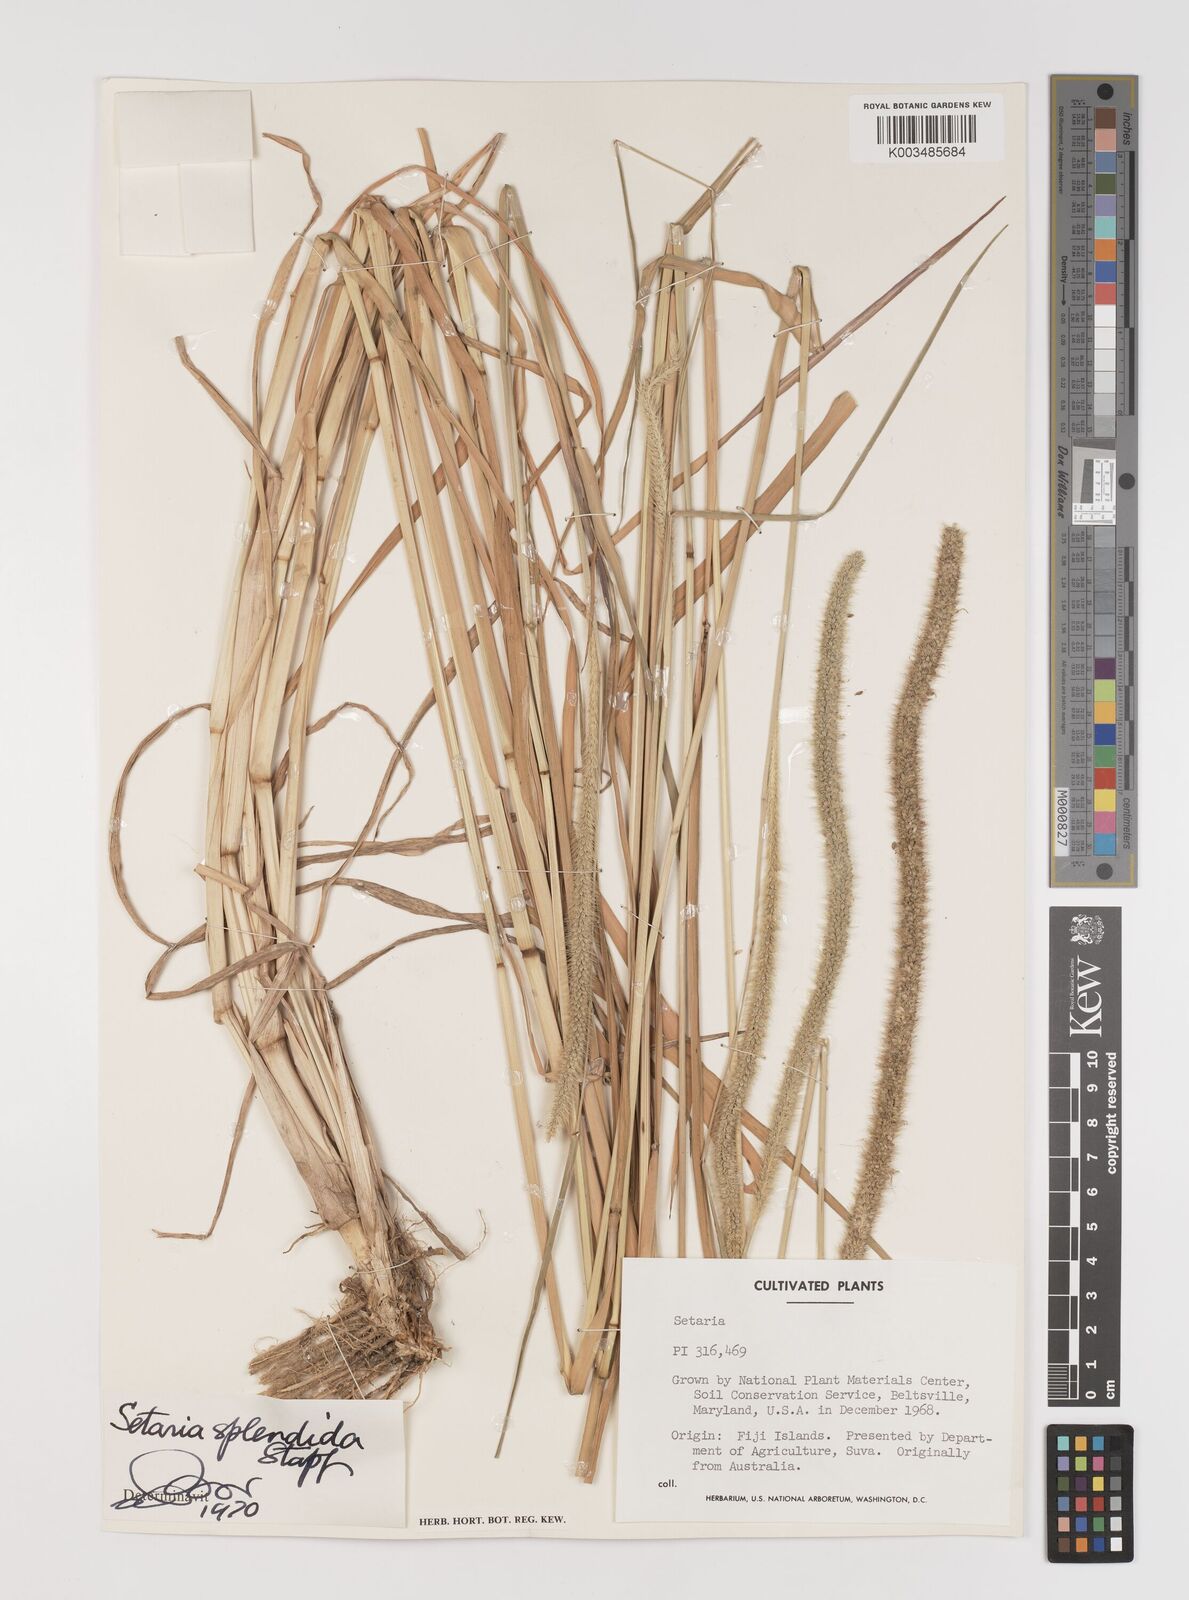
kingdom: Plantae
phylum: Tracheophyta
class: Liliopsida
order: Poales
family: Poaceae
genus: Setaria
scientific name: Setaria sphacelata
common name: African bristlegrass
